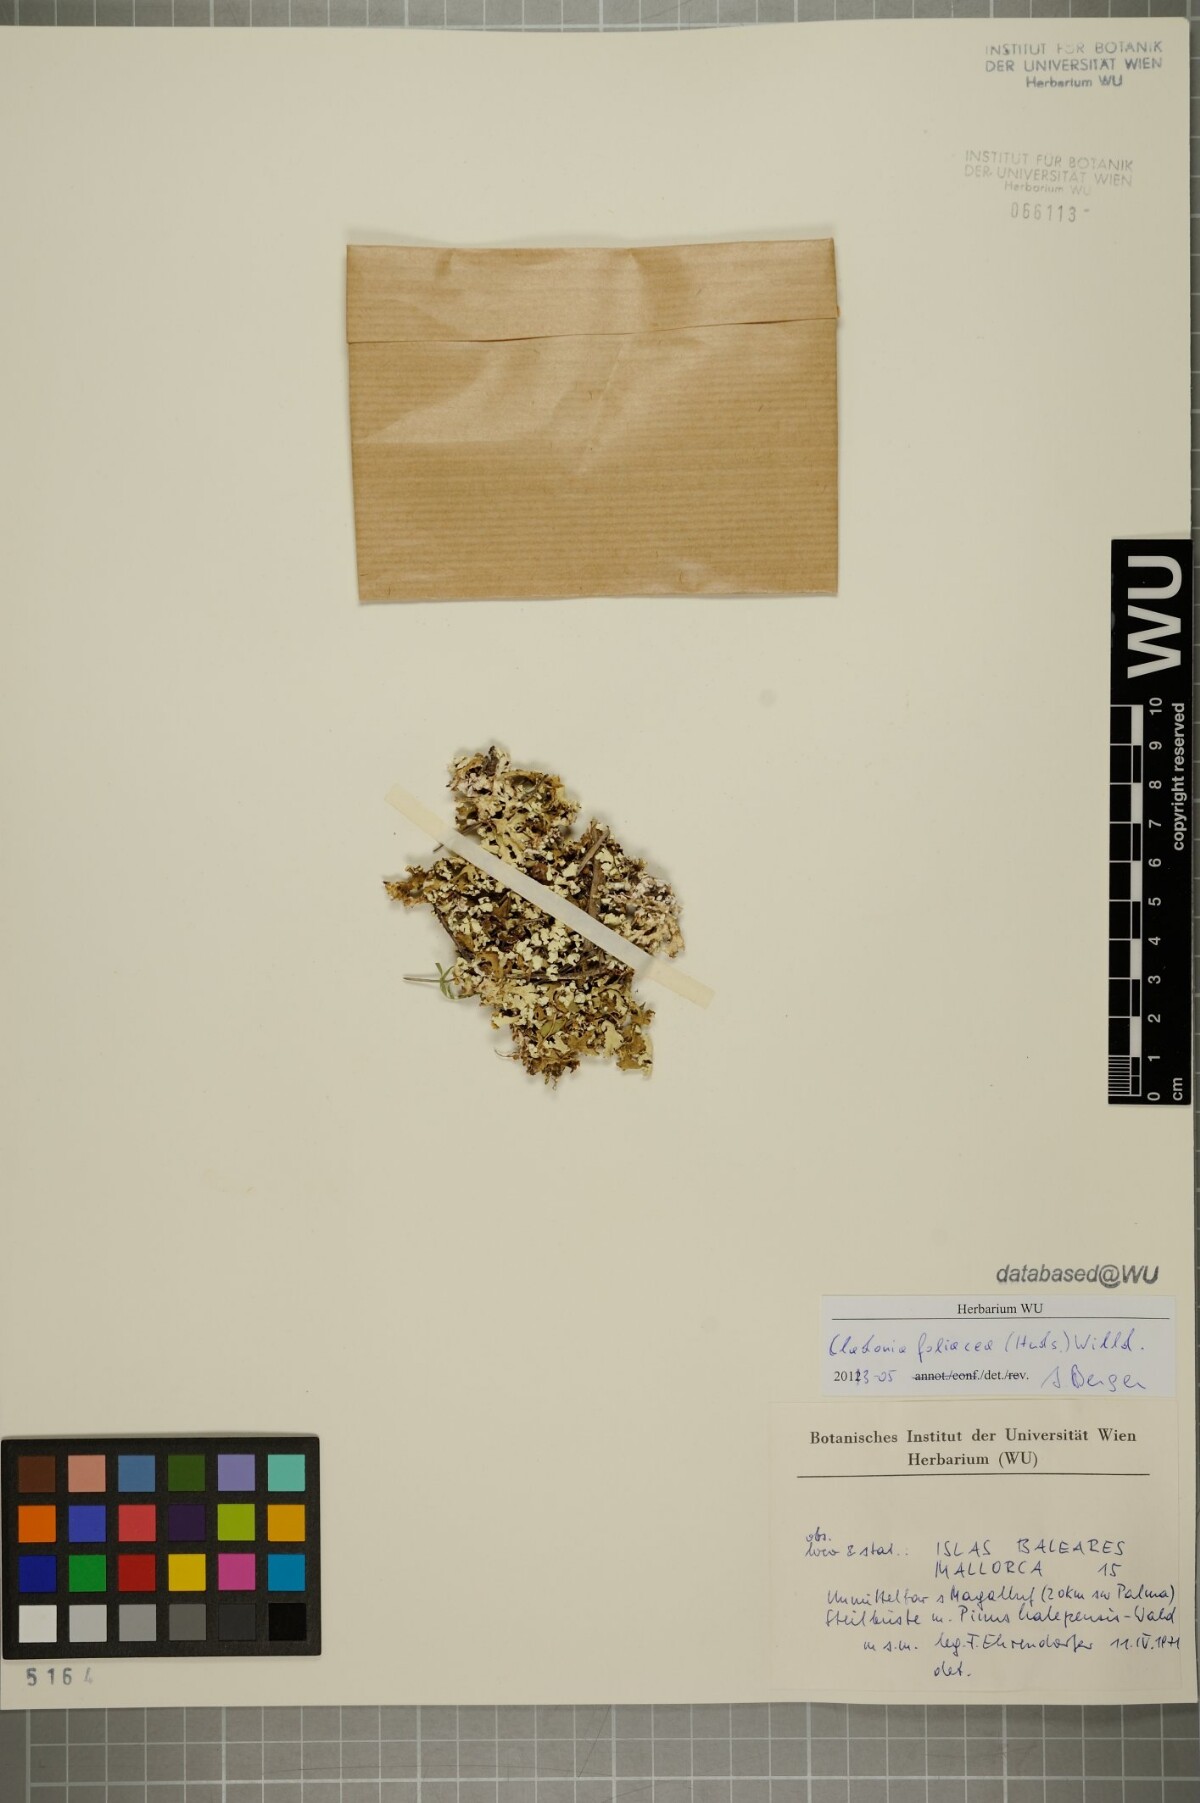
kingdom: Fungi
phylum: Ascomycota
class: Lecanoromycetes
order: Lecanorales
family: Cladoniaceae
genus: Cladonia
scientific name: Cladonia foliacea
